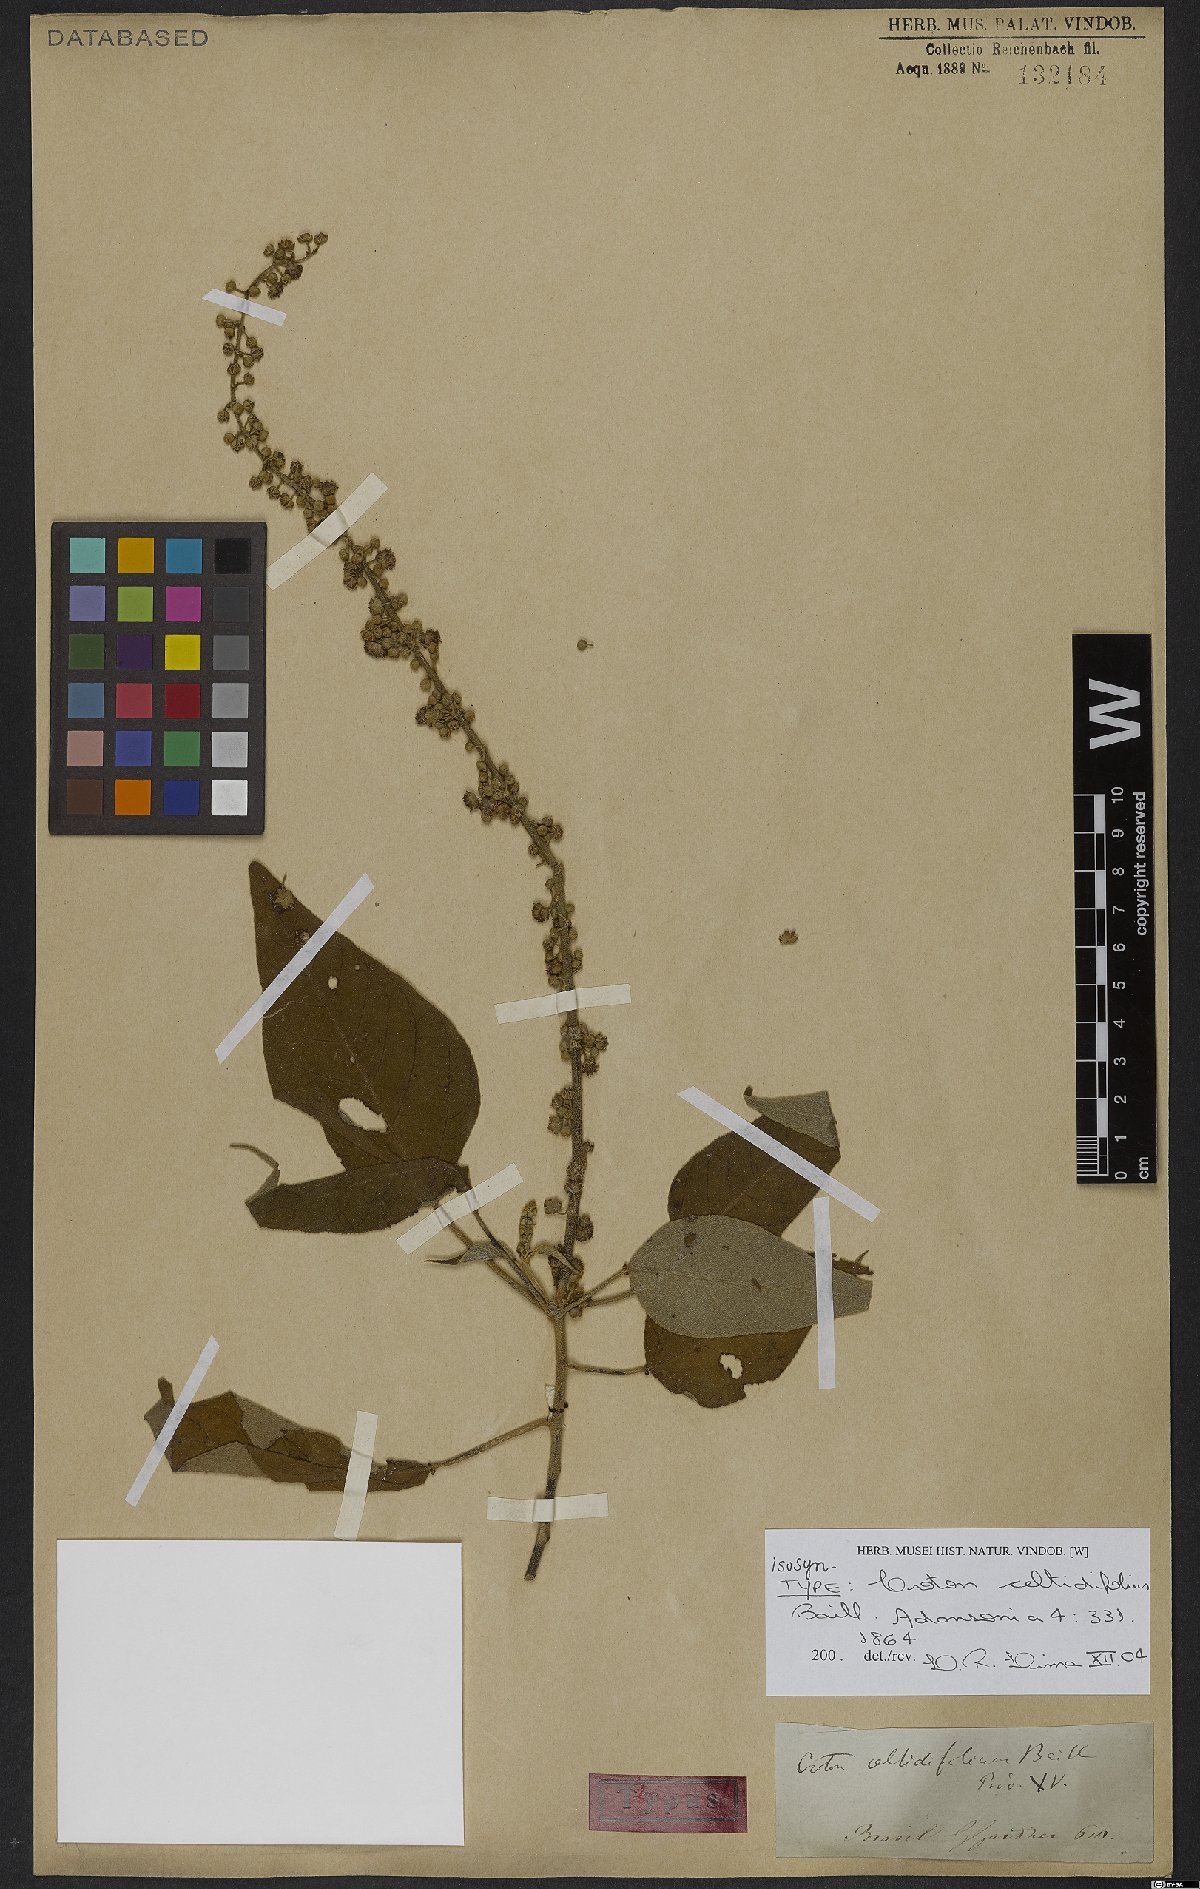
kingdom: Plantae
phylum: Tracheophyta
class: Magnoliopsida
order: Malpighiales
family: Euphorbiaceae
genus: Croton
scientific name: Croton celtidifolius
